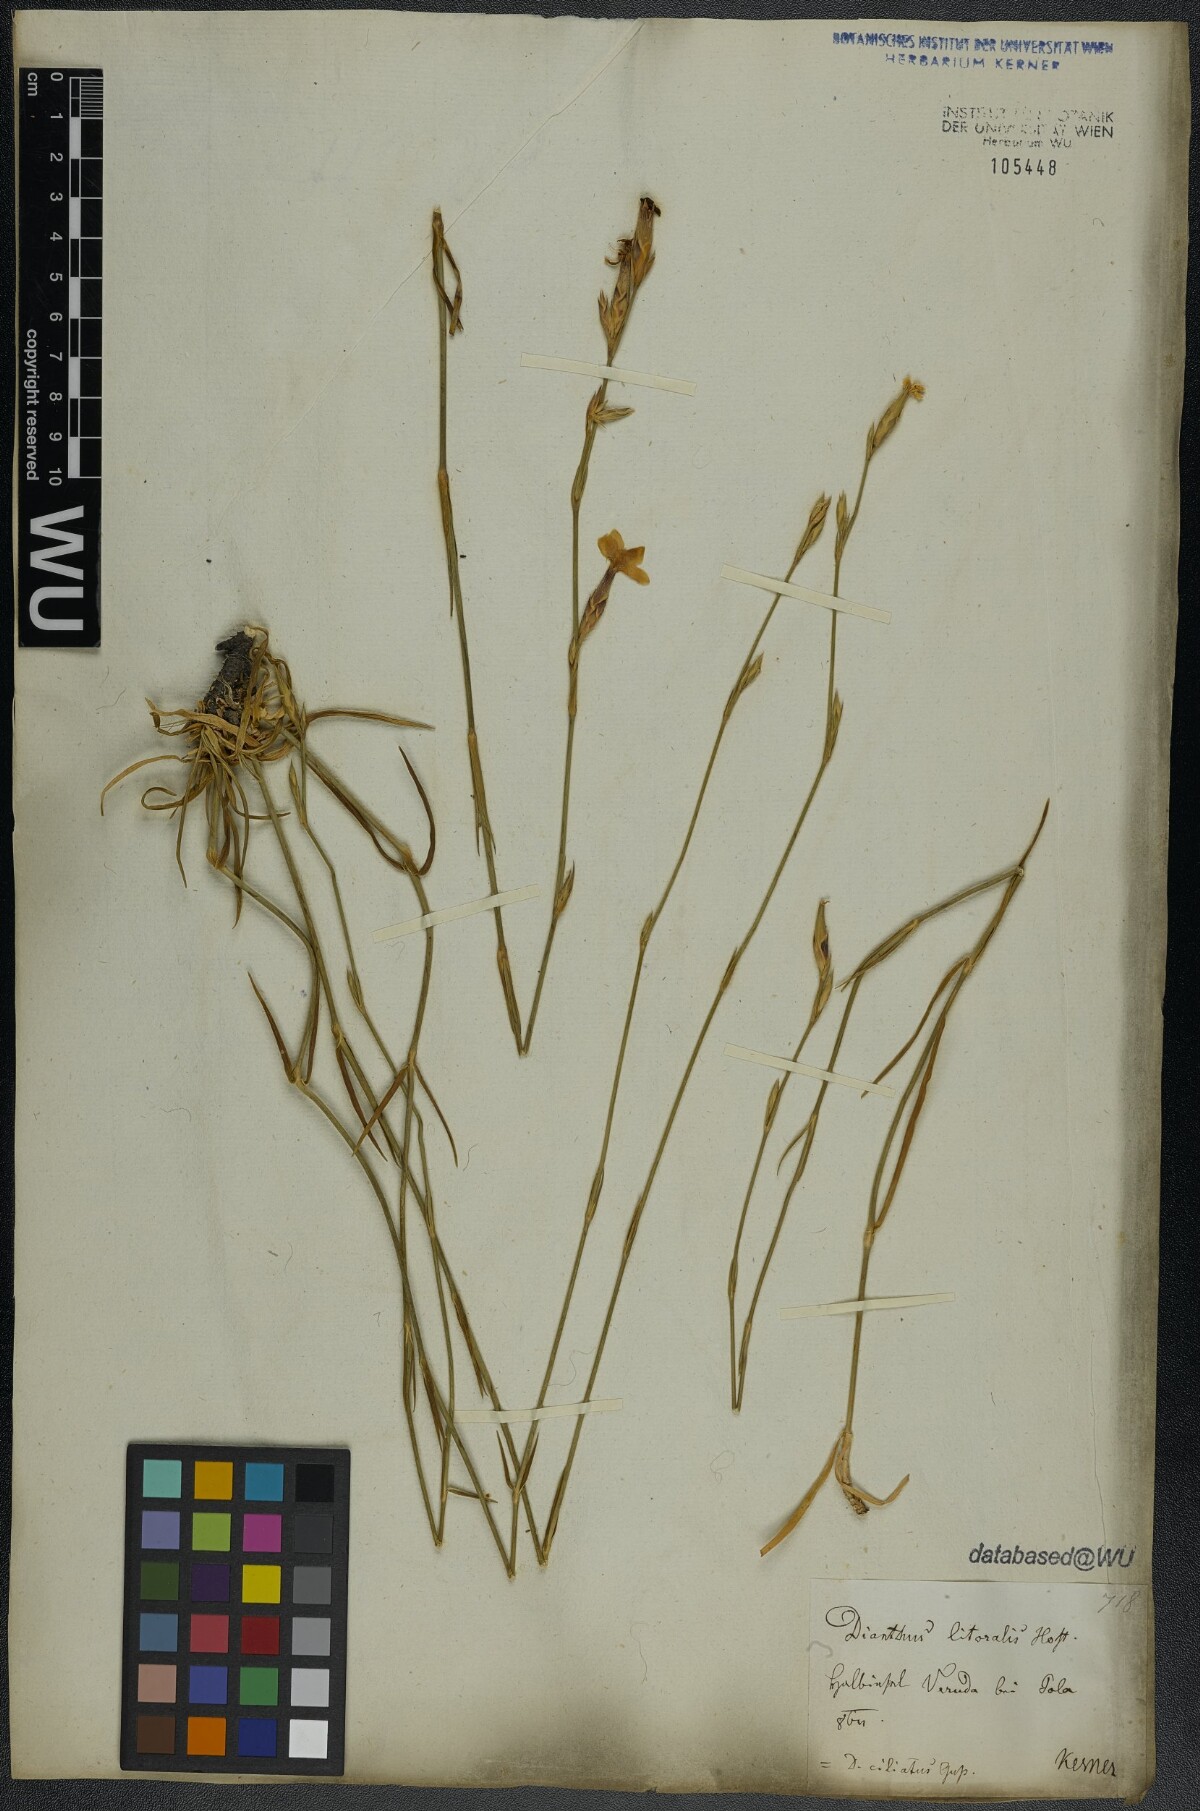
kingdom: Plantae
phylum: Tracheophyta
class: Magnoliopsida
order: Caryophyllales
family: Caryophyllaceae
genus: Dianthus
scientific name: Dianthus ciliatus
